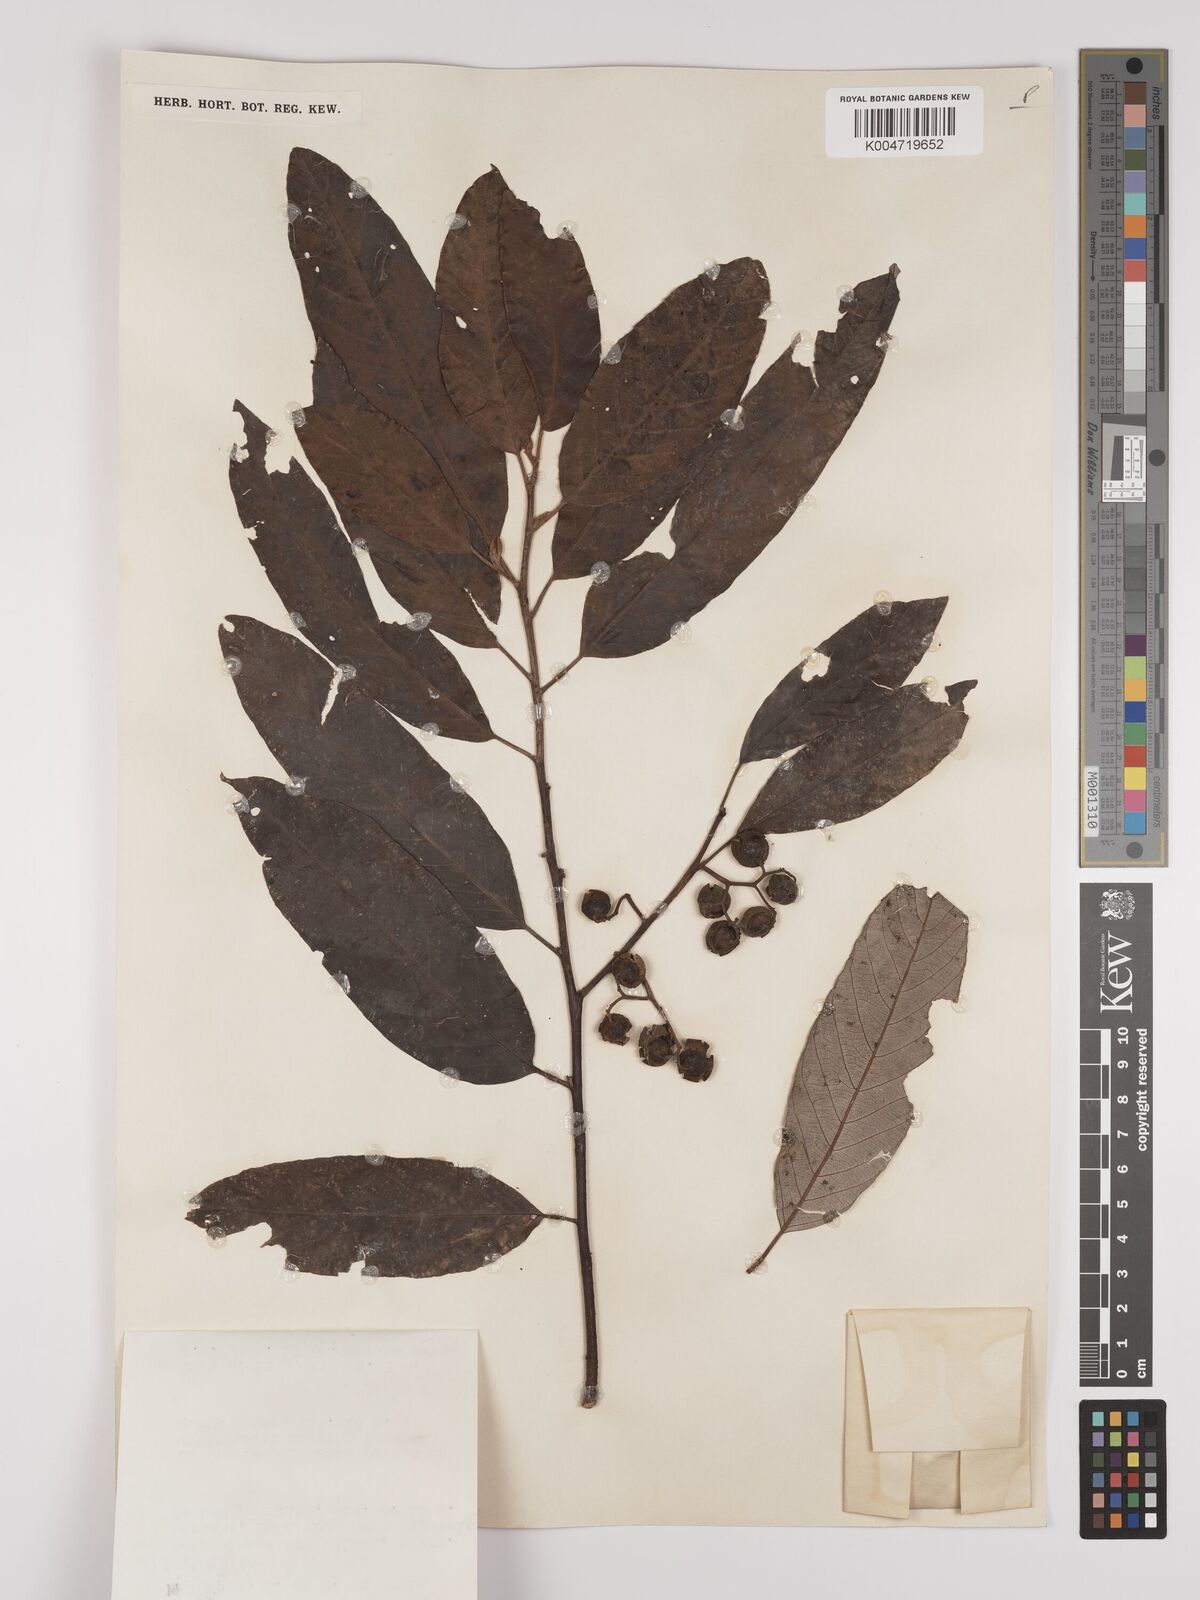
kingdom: Plantae
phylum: Tracheophyta
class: Magnoliopsida
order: Rosales
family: Rhamnaceae
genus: Alphitonia
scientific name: Alphitonia
